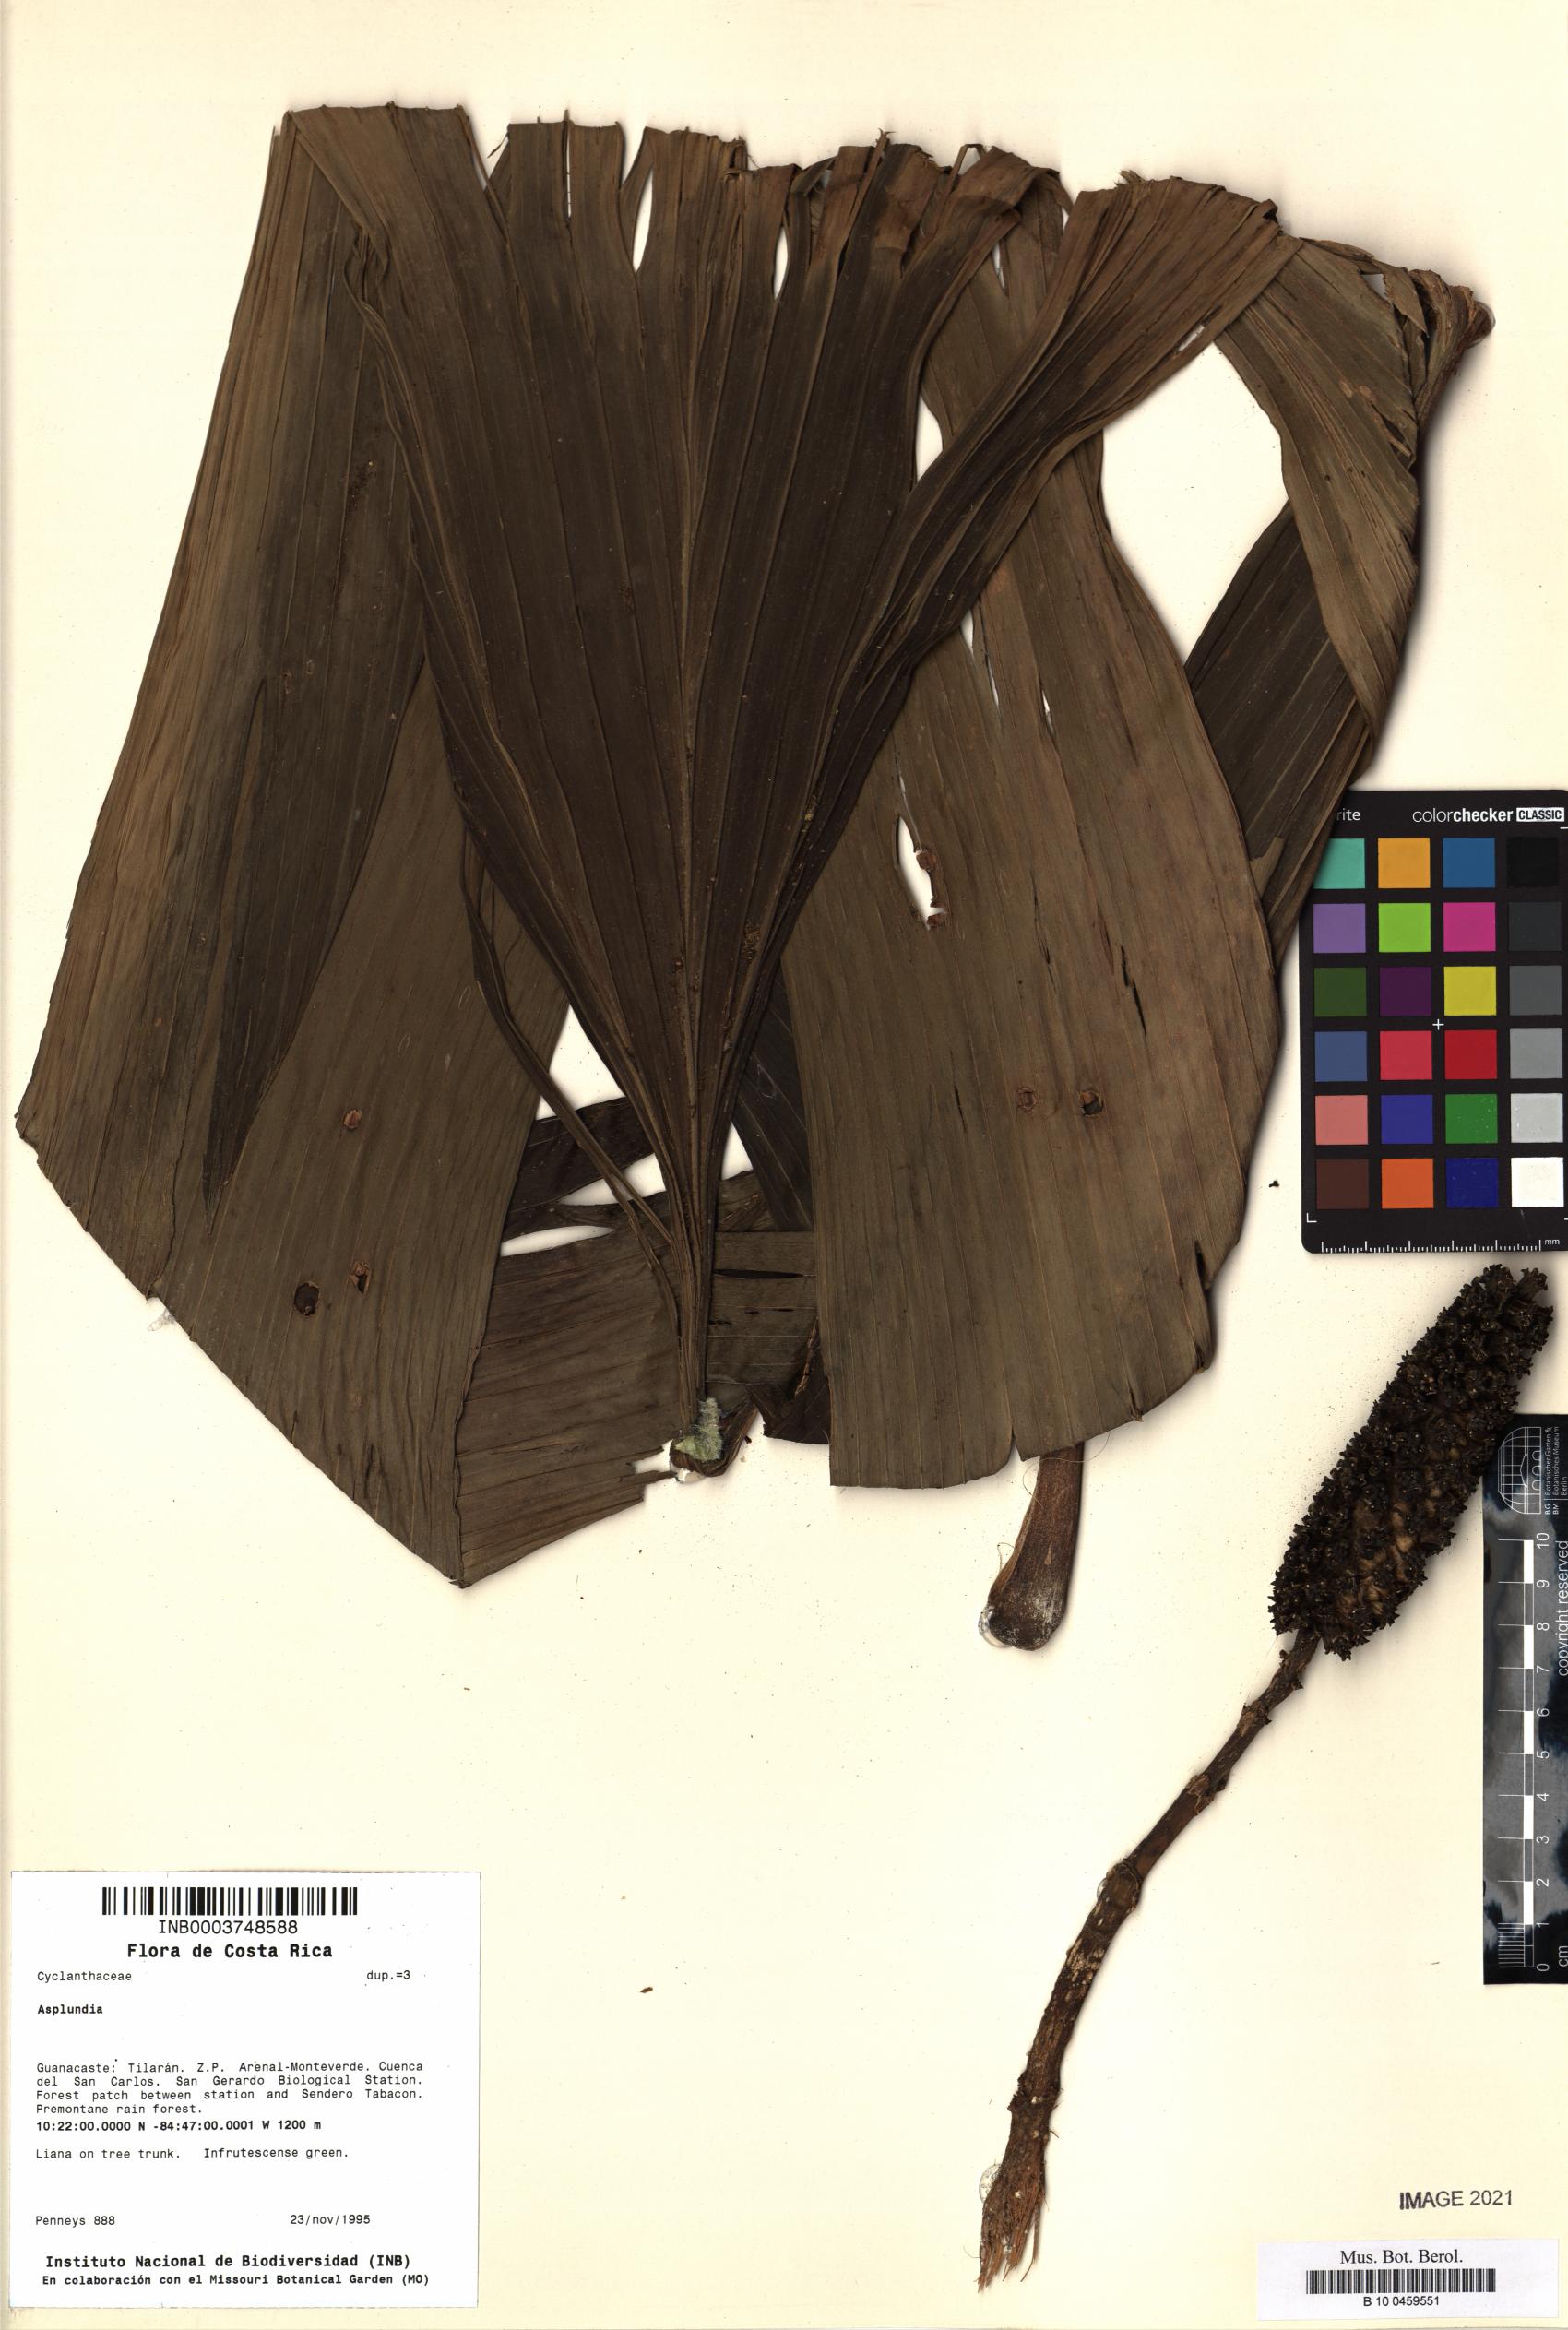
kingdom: Plantae
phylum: Tracheophyta
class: Liliopsida
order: Pandanales
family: Cyclanthaceae
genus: Asplundia
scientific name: Asplundia
